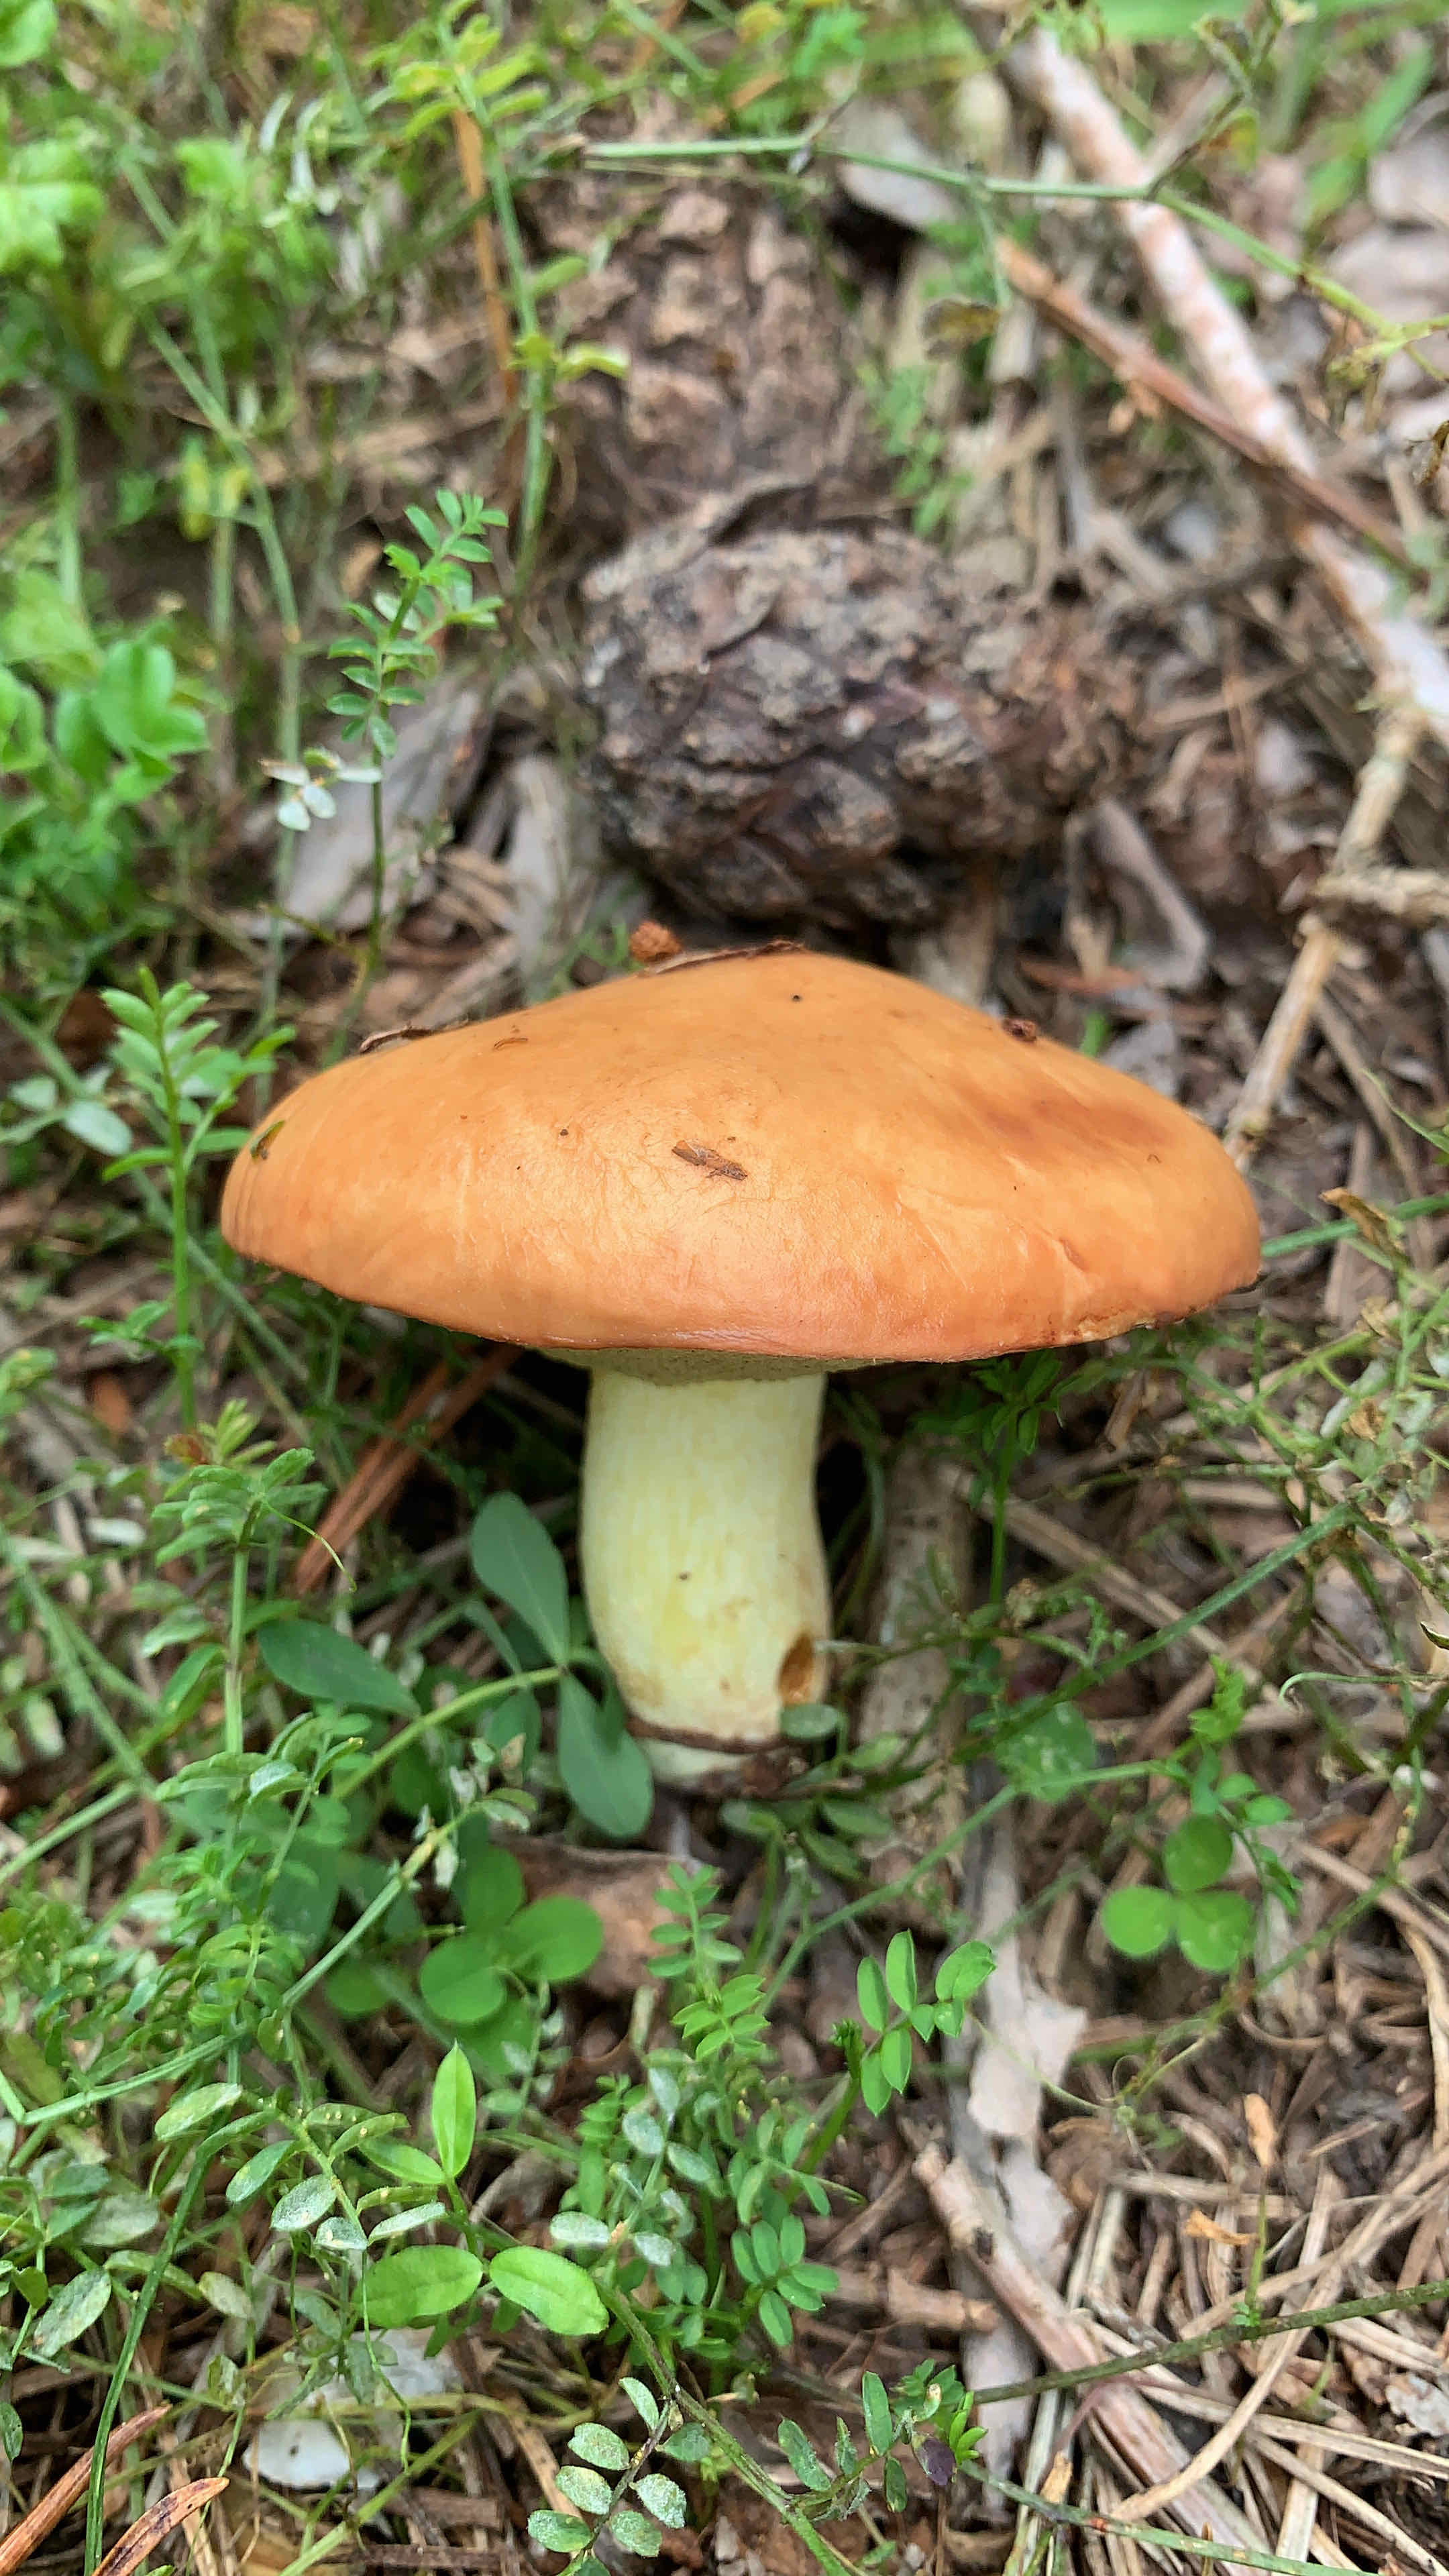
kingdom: Fungi
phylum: Basidiomycota
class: Agaricomycetes
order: Boletales
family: Suillaceae
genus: Suillus
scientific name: Suillus granulatus
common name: kornet slimrørhat
